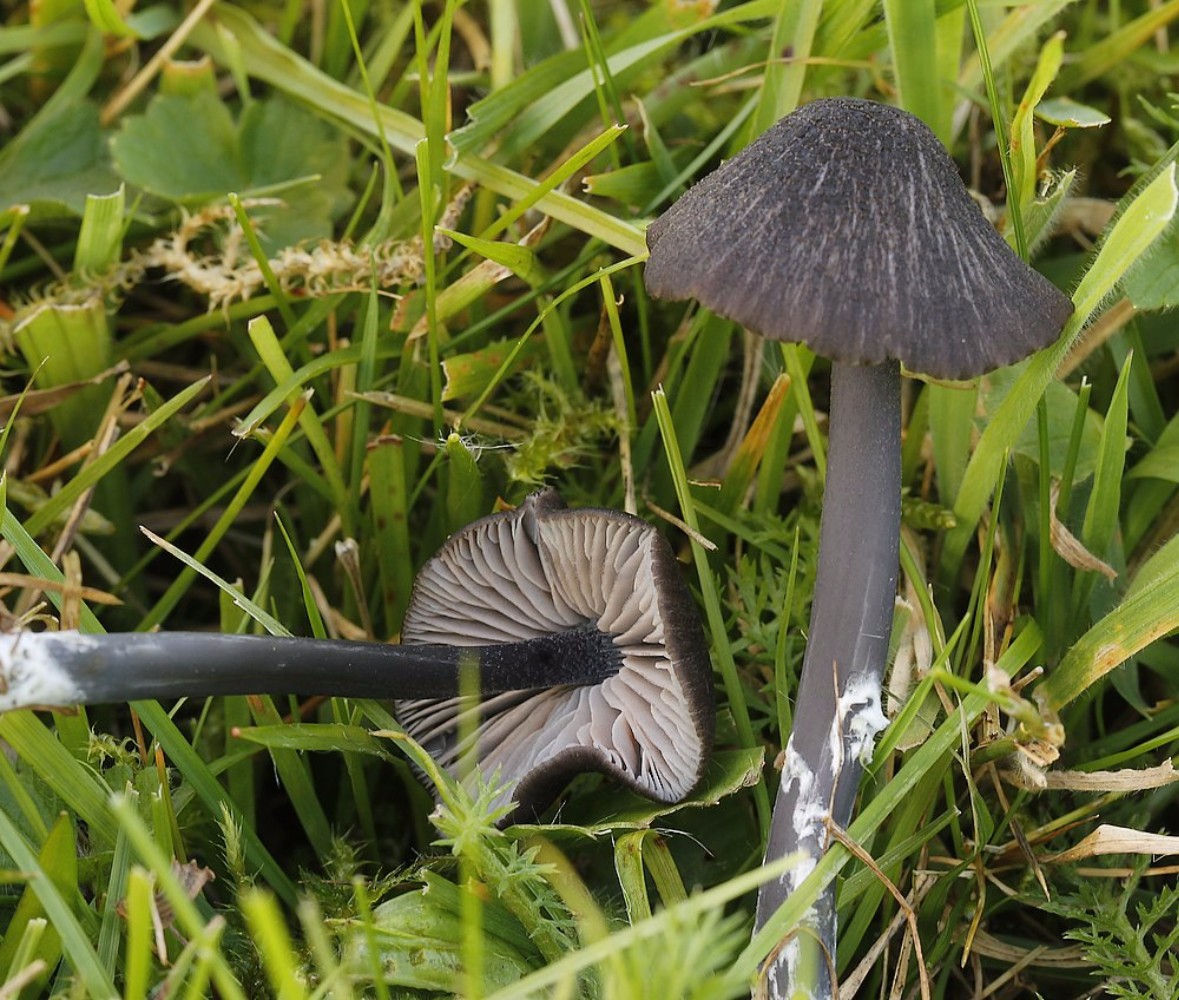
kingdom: Fungi
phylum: Basidiomycota
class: Agaricomycetes
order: Agaricales
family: Entolomataceae
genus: Entoloma
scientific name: Entoloma
